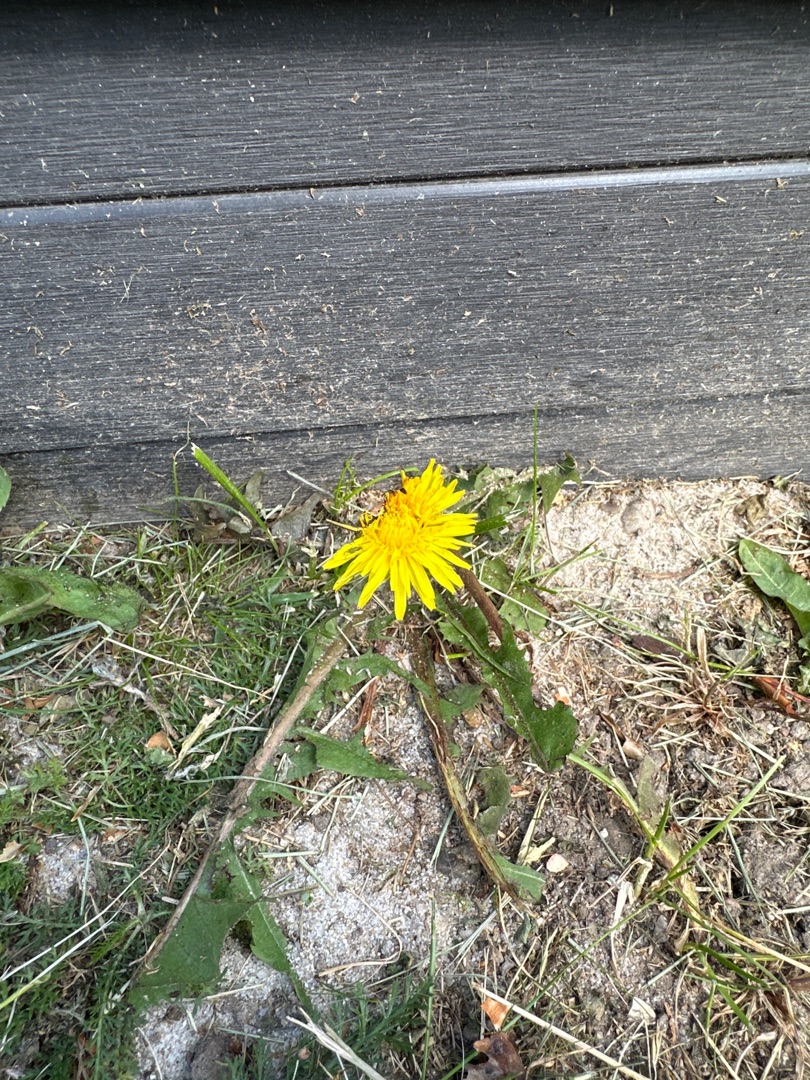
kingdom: Plantae
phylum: Tracheophyta
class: Magnoliopsida
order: Asterales
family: Asteraceae
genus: Taraxacum
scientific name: Taraxacum
